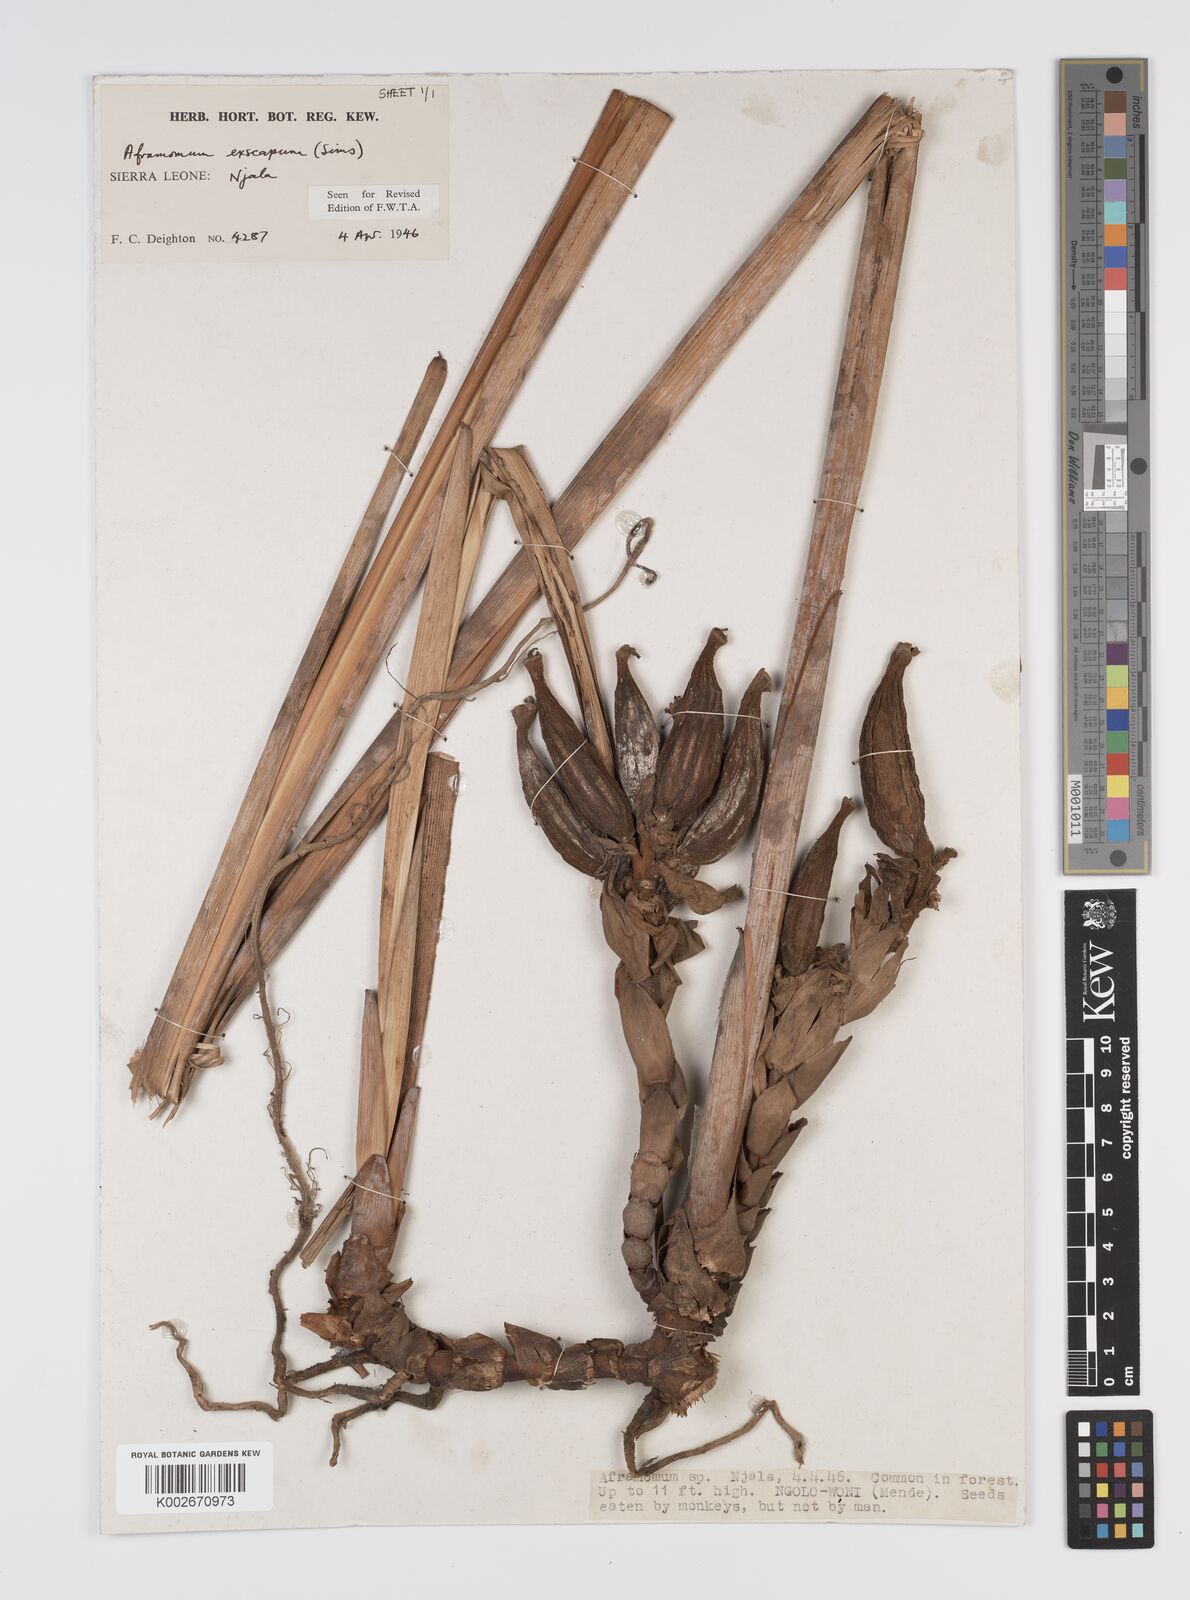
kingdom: Plantae
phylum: Tracheophyta
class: Liliopsida
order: Zingiberales
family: Zingiberaceae
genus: Aframomum
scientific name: Aframomum exscapum
